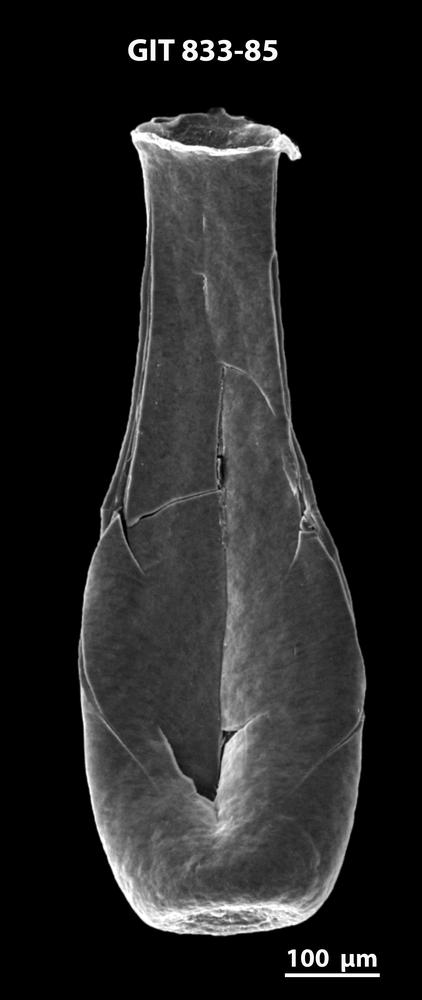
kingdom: Animalia
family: Lagenochitinidae
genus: Lagenochitina
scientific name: Lagenochitina megaesthonica
